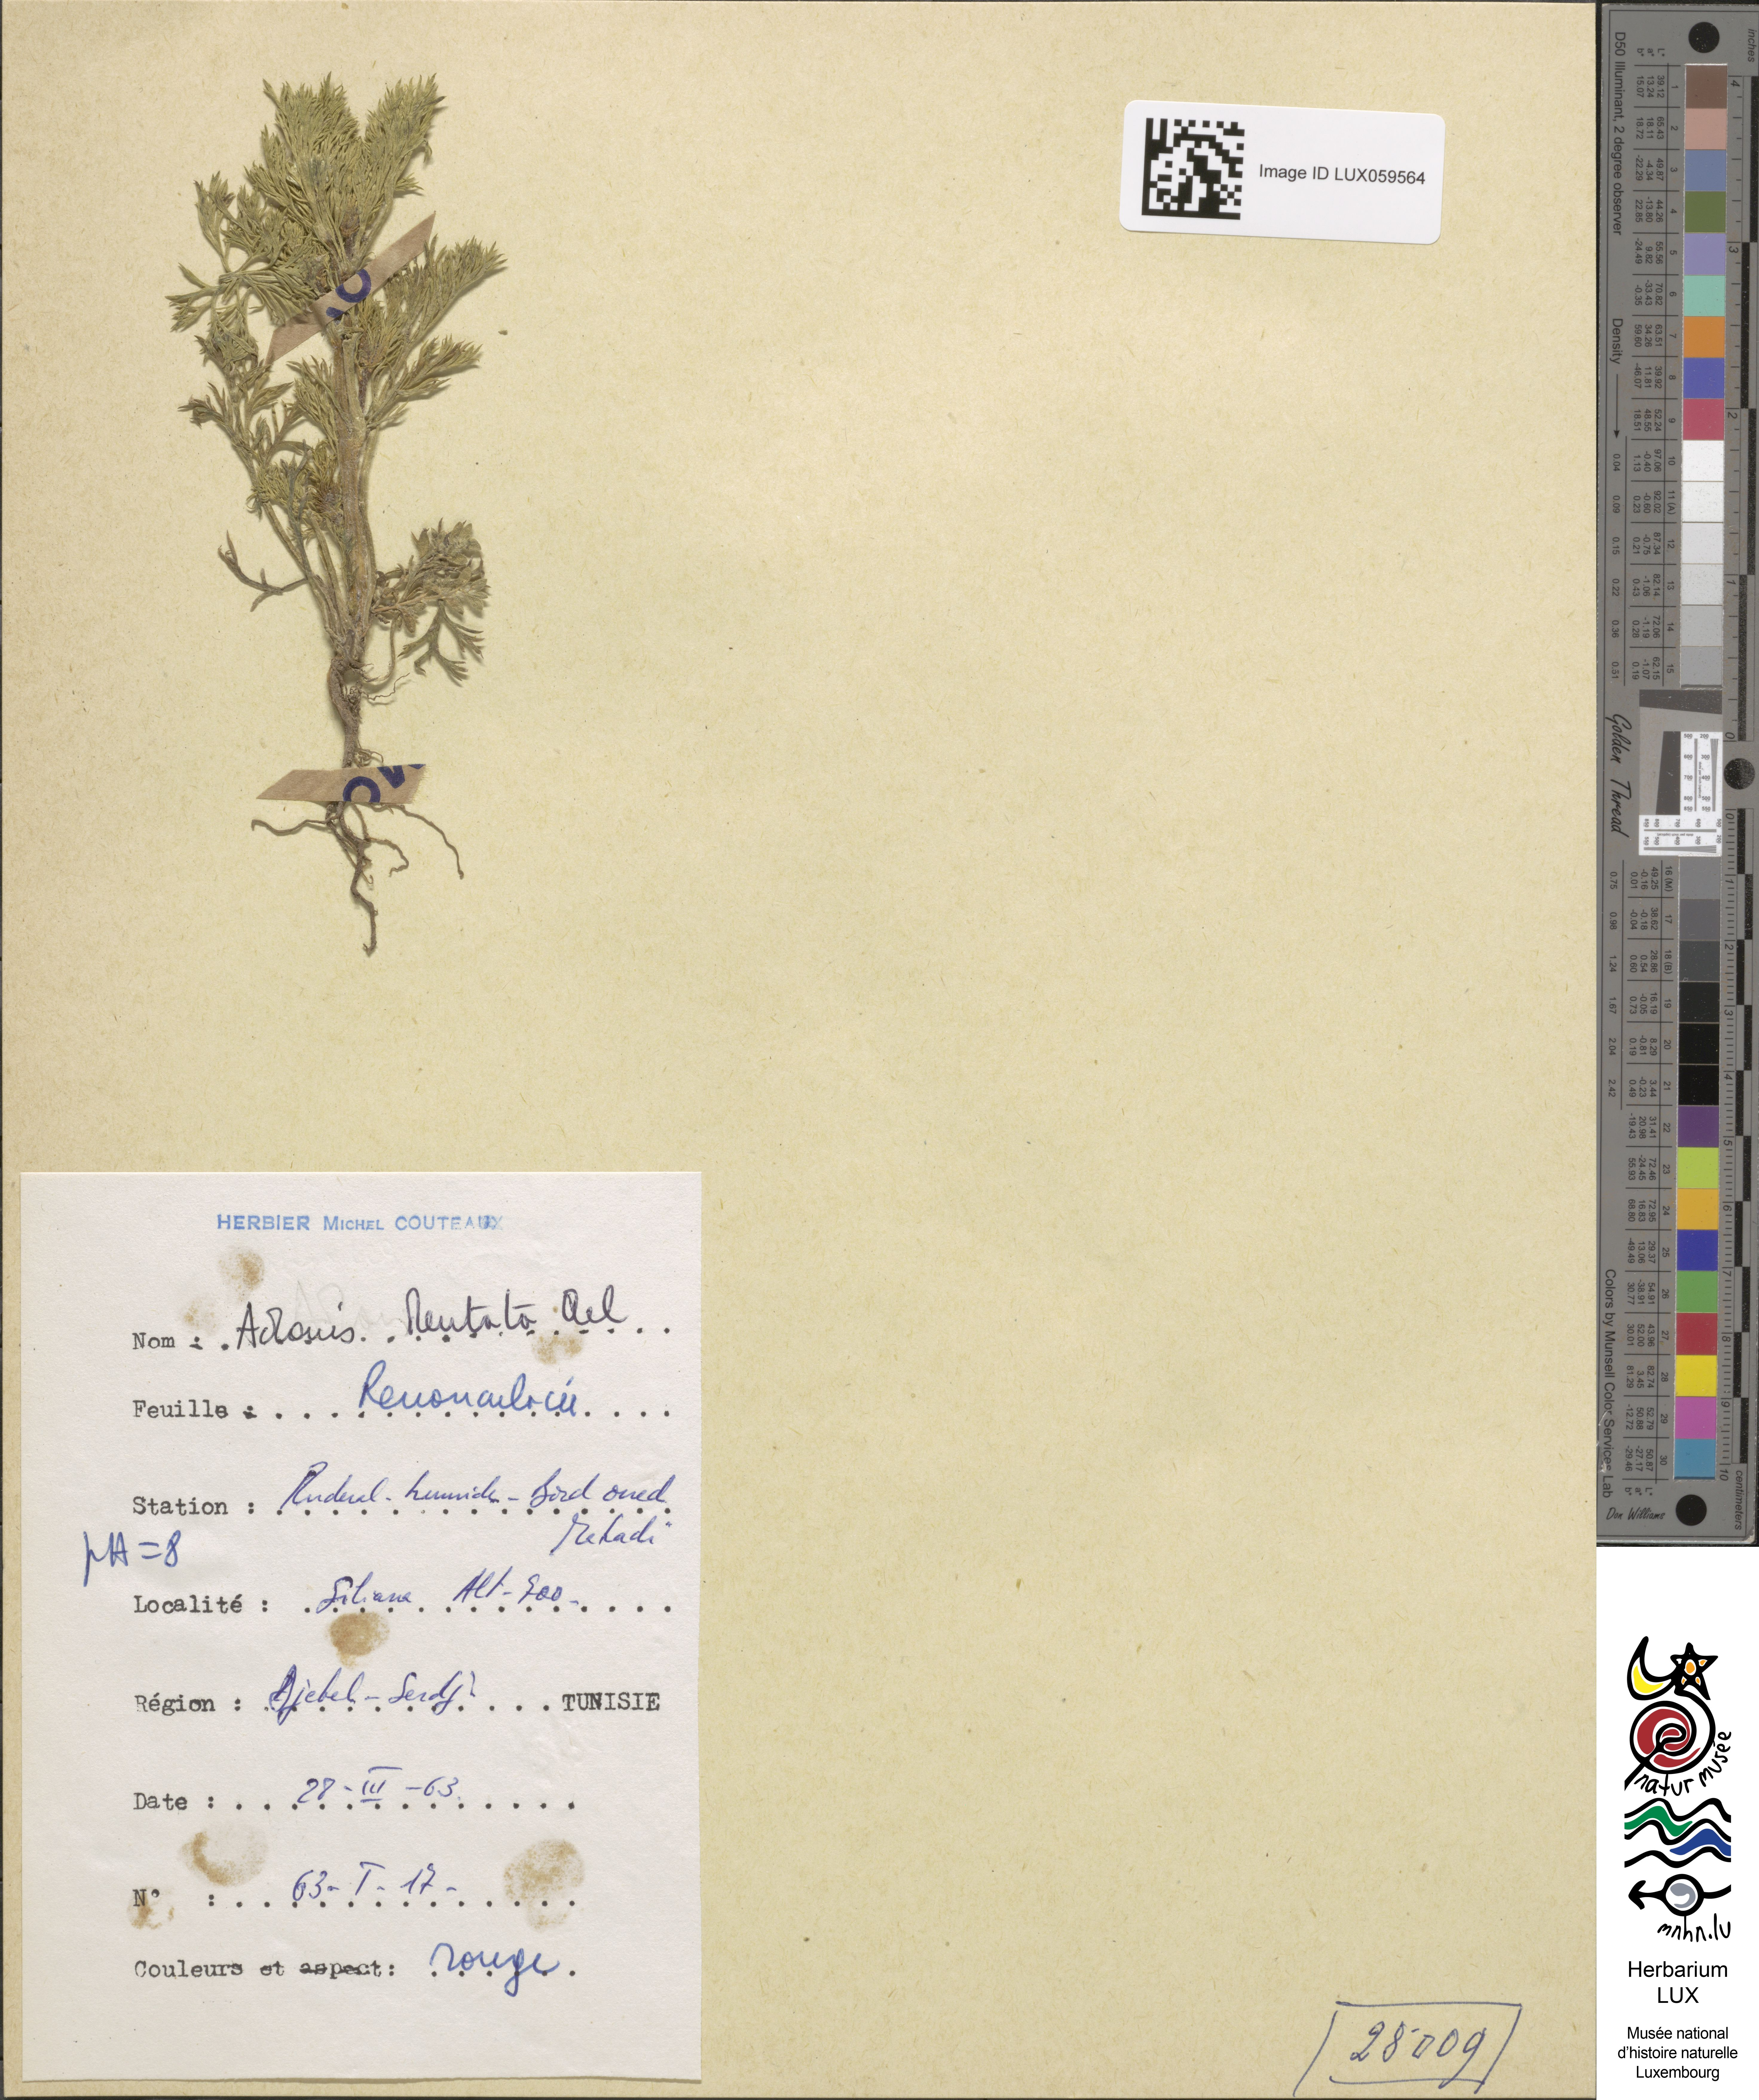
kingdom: Plantae
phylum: Tracheophyta
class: Magnoliopsida
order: Ranunculales
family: Ranunculaceae
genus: Adonis
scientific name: Adonis dentata
